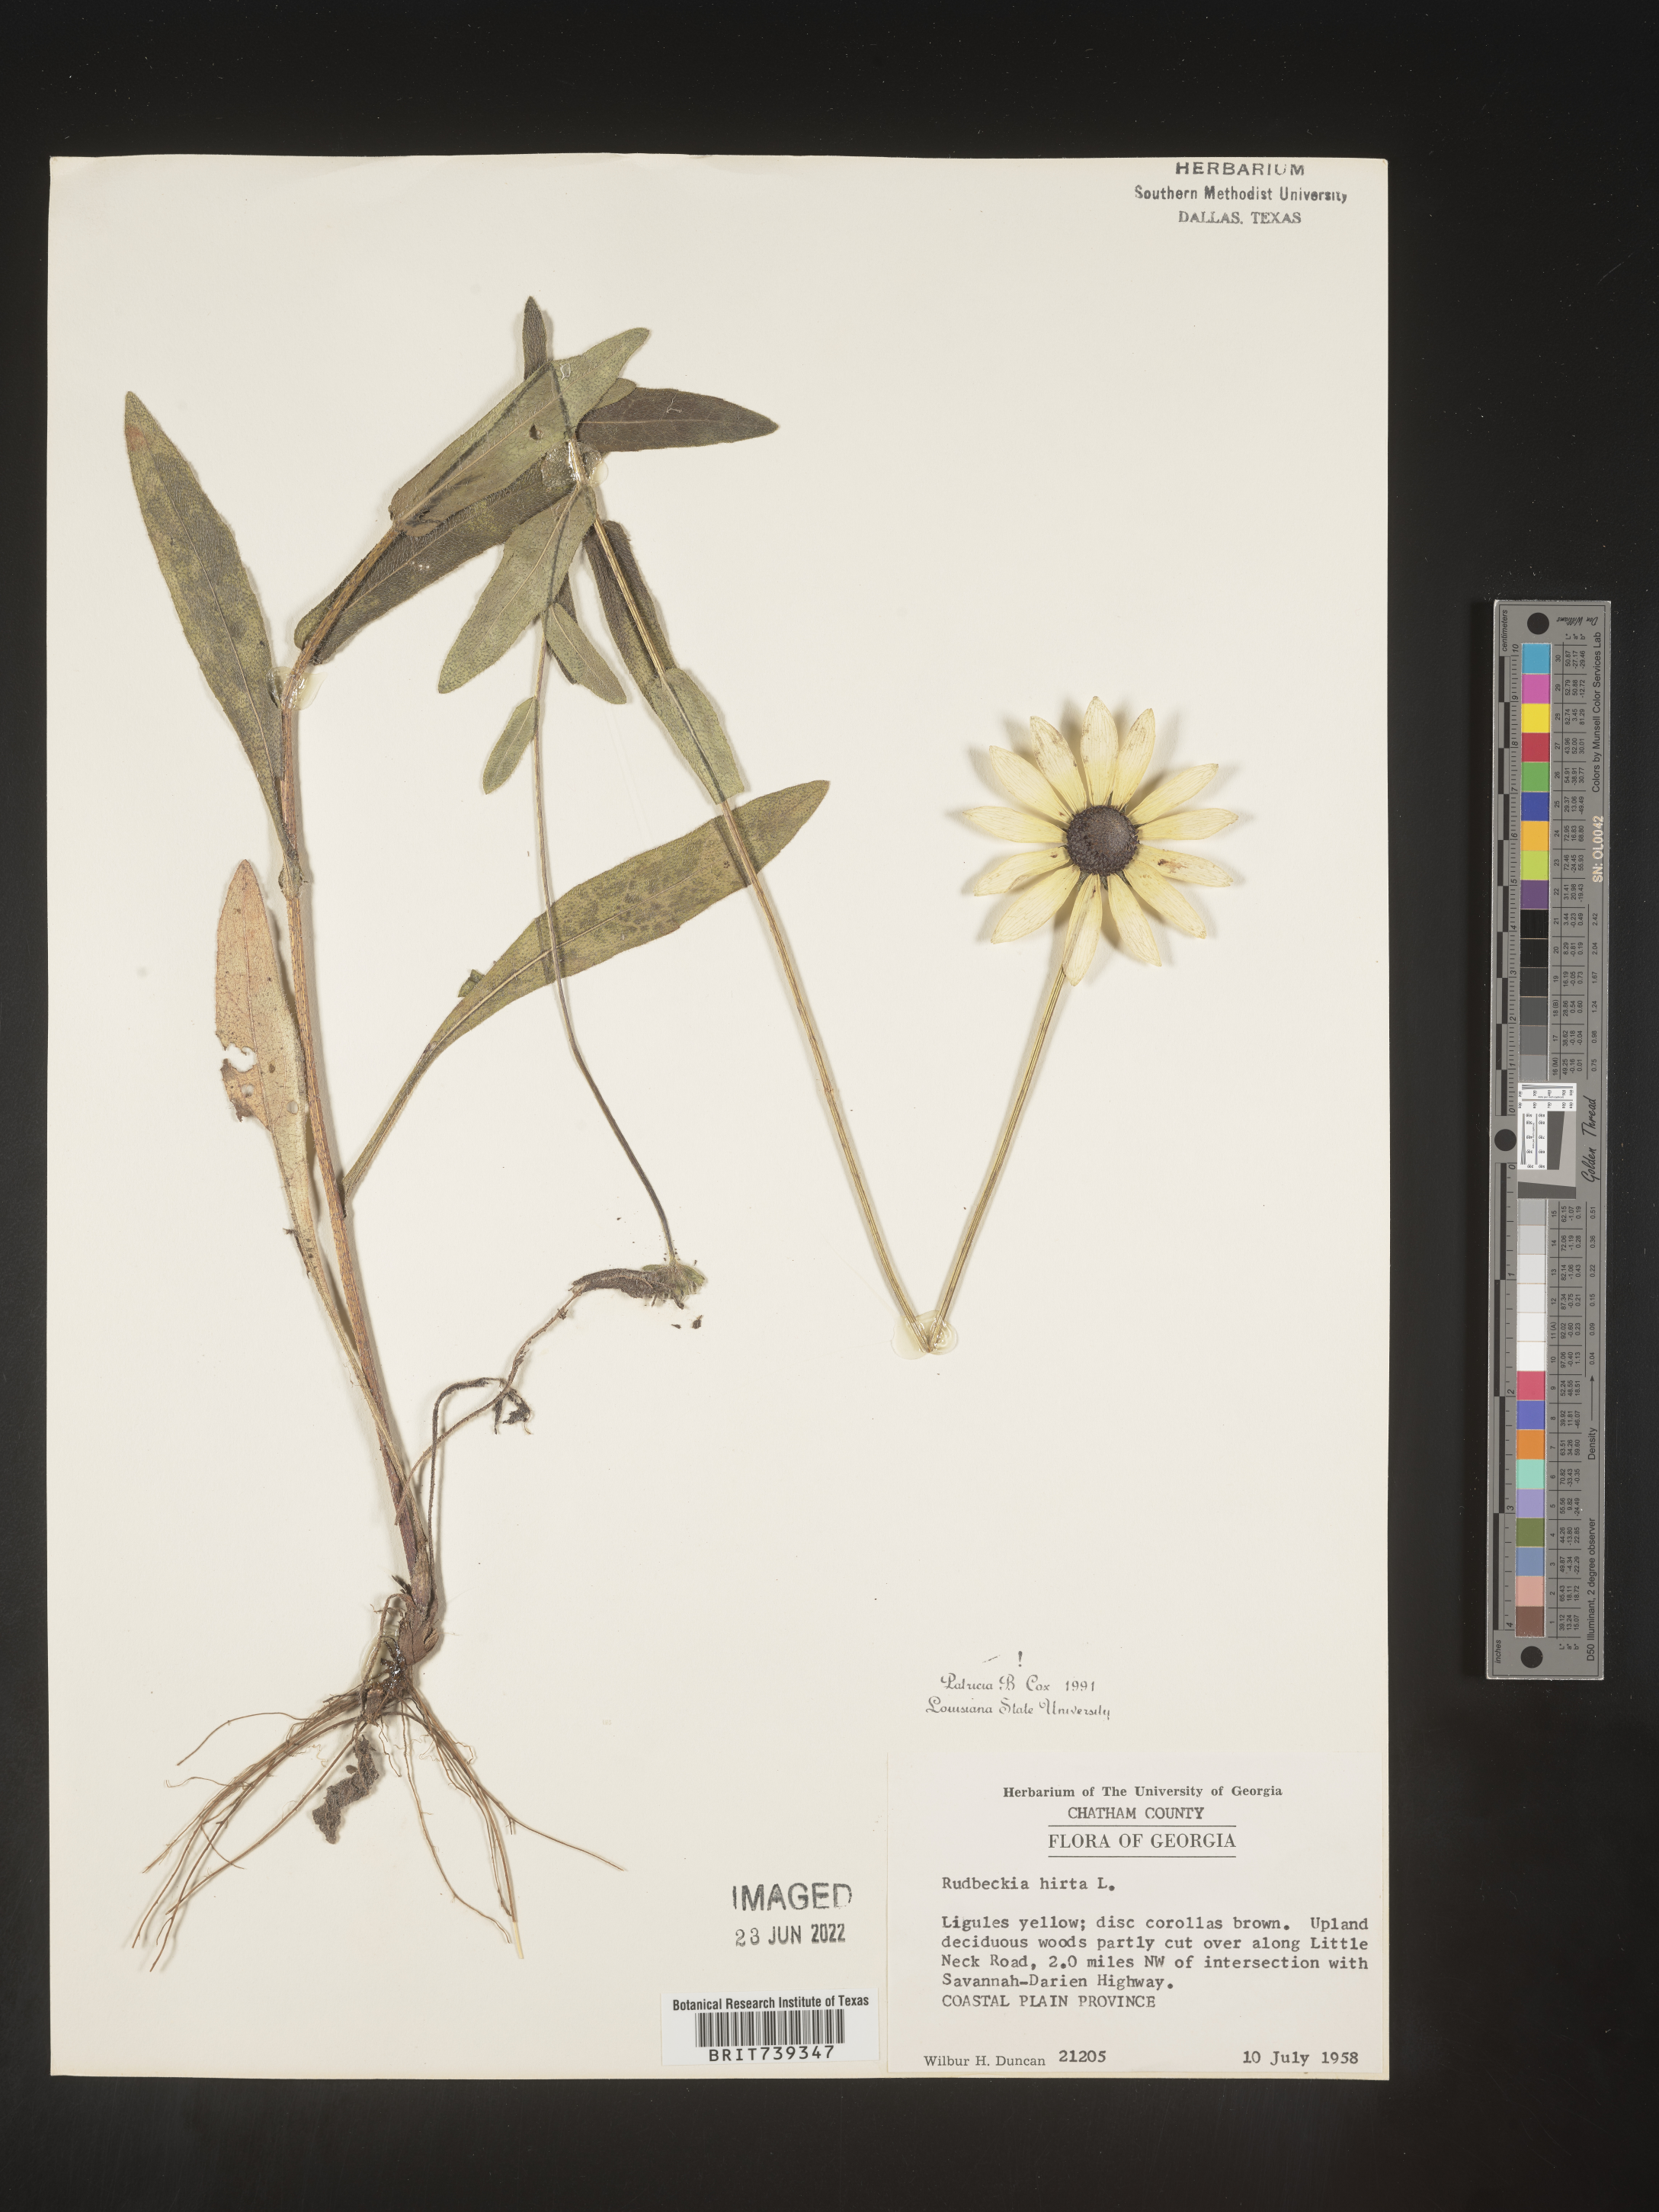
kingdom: Plantae
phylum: Tracheophyta
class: Magnoliopsida
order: Asterales
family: Asteraceae
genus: Rudbeckia
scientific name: Rudbeckia hirta
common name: Black-eyed-susan
